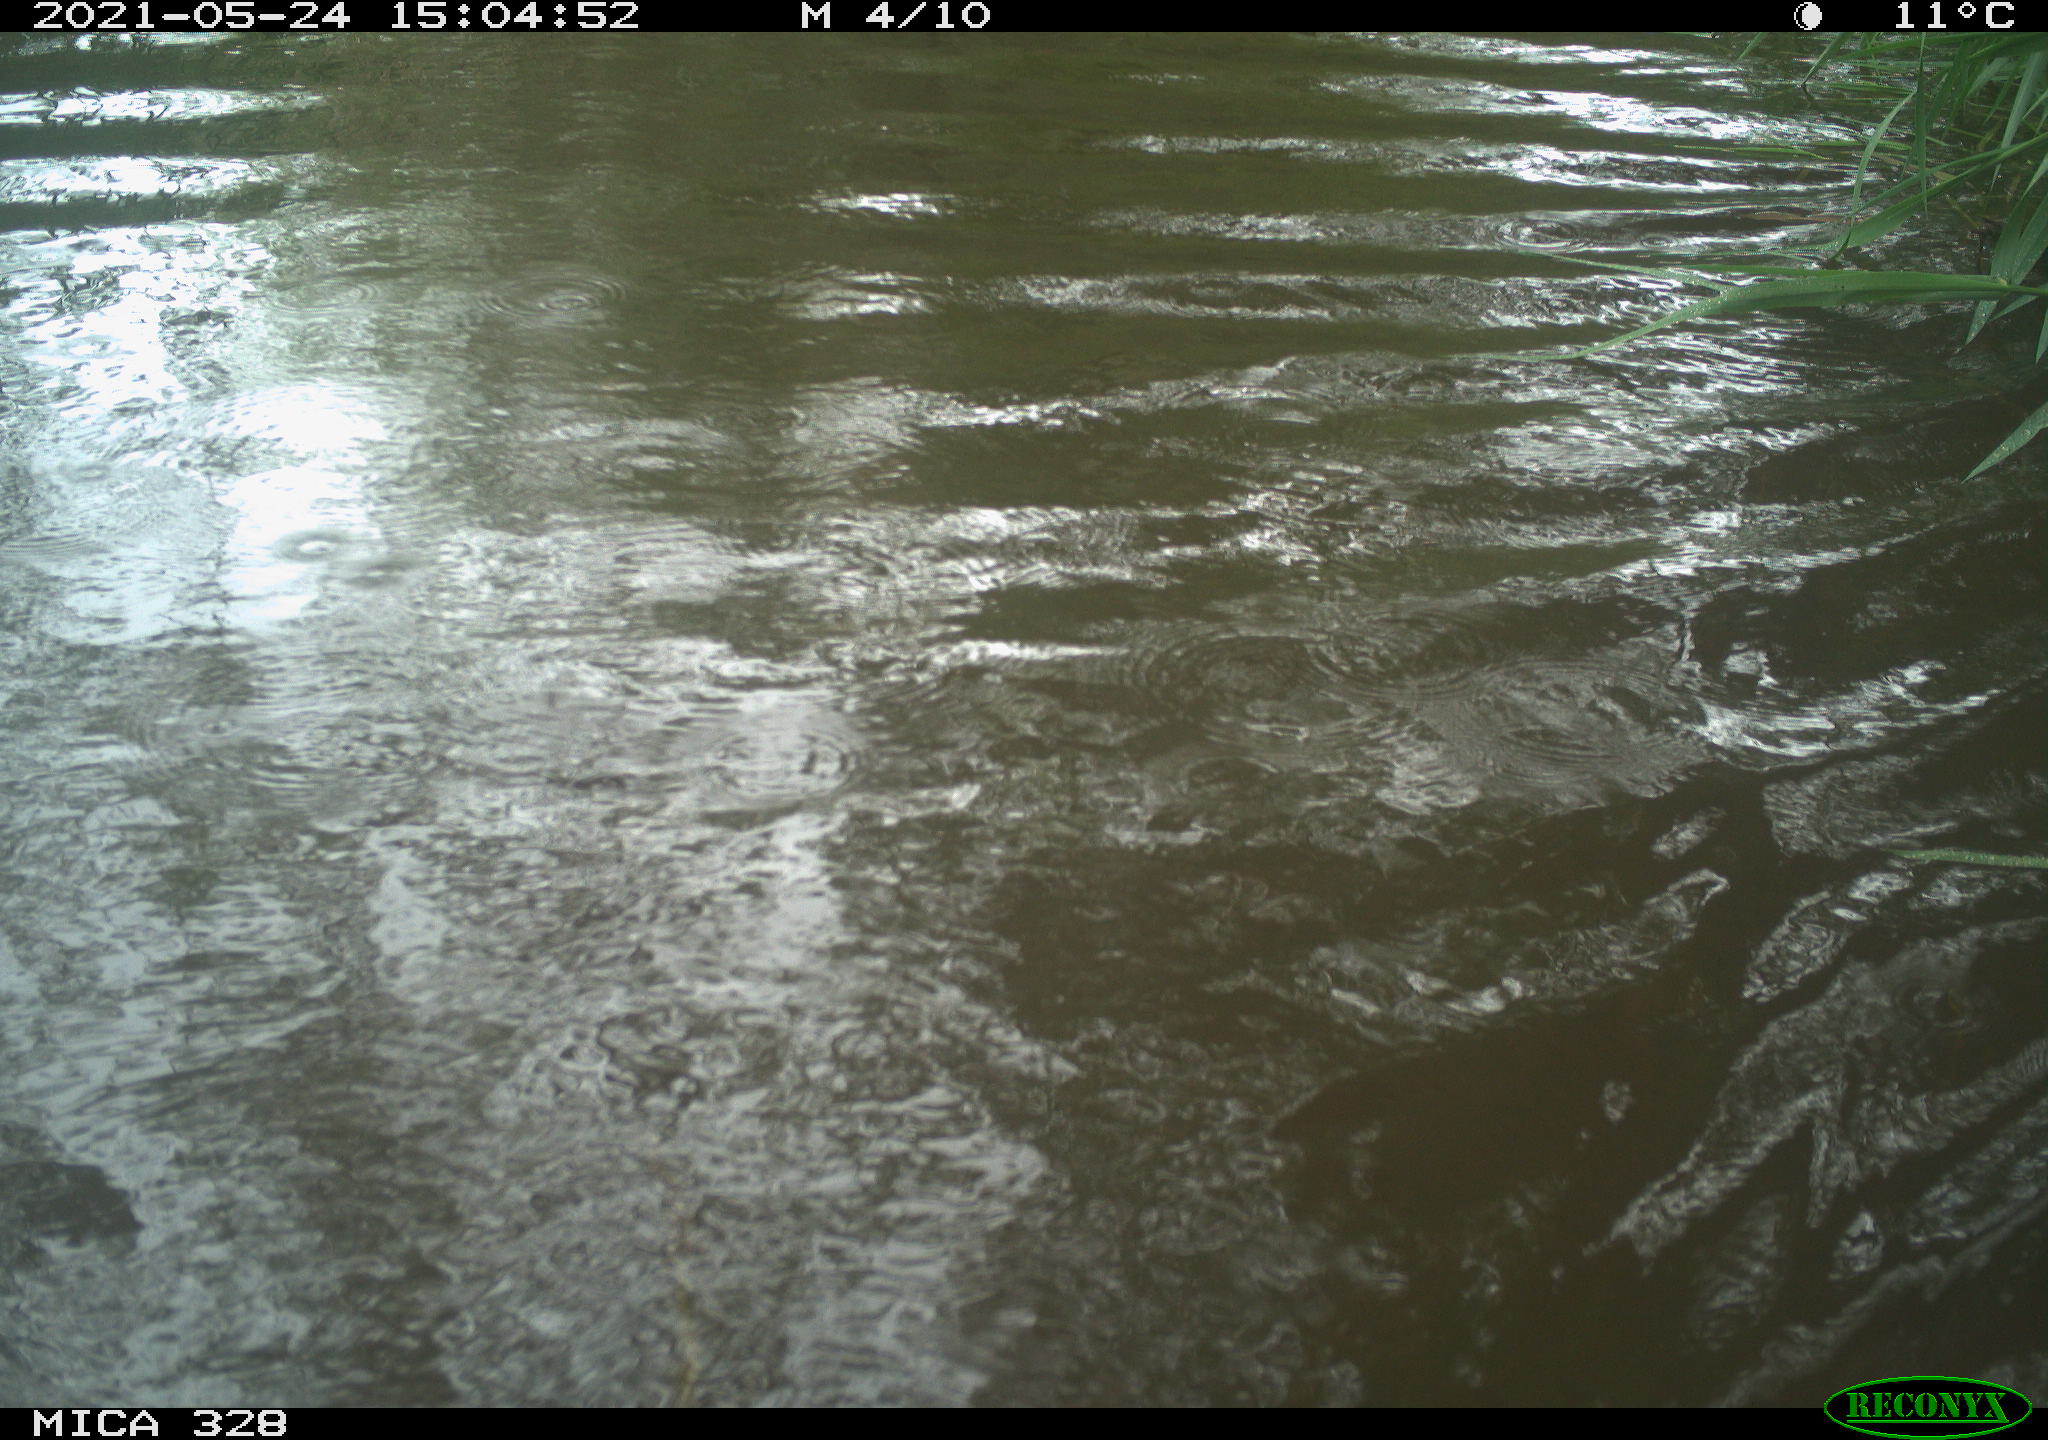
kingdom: Animalia
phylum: Chordata
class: Aves
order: Anseriformes
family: Anatidae
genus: Aix
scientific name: Aix galericulata
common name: Mandarin duck
